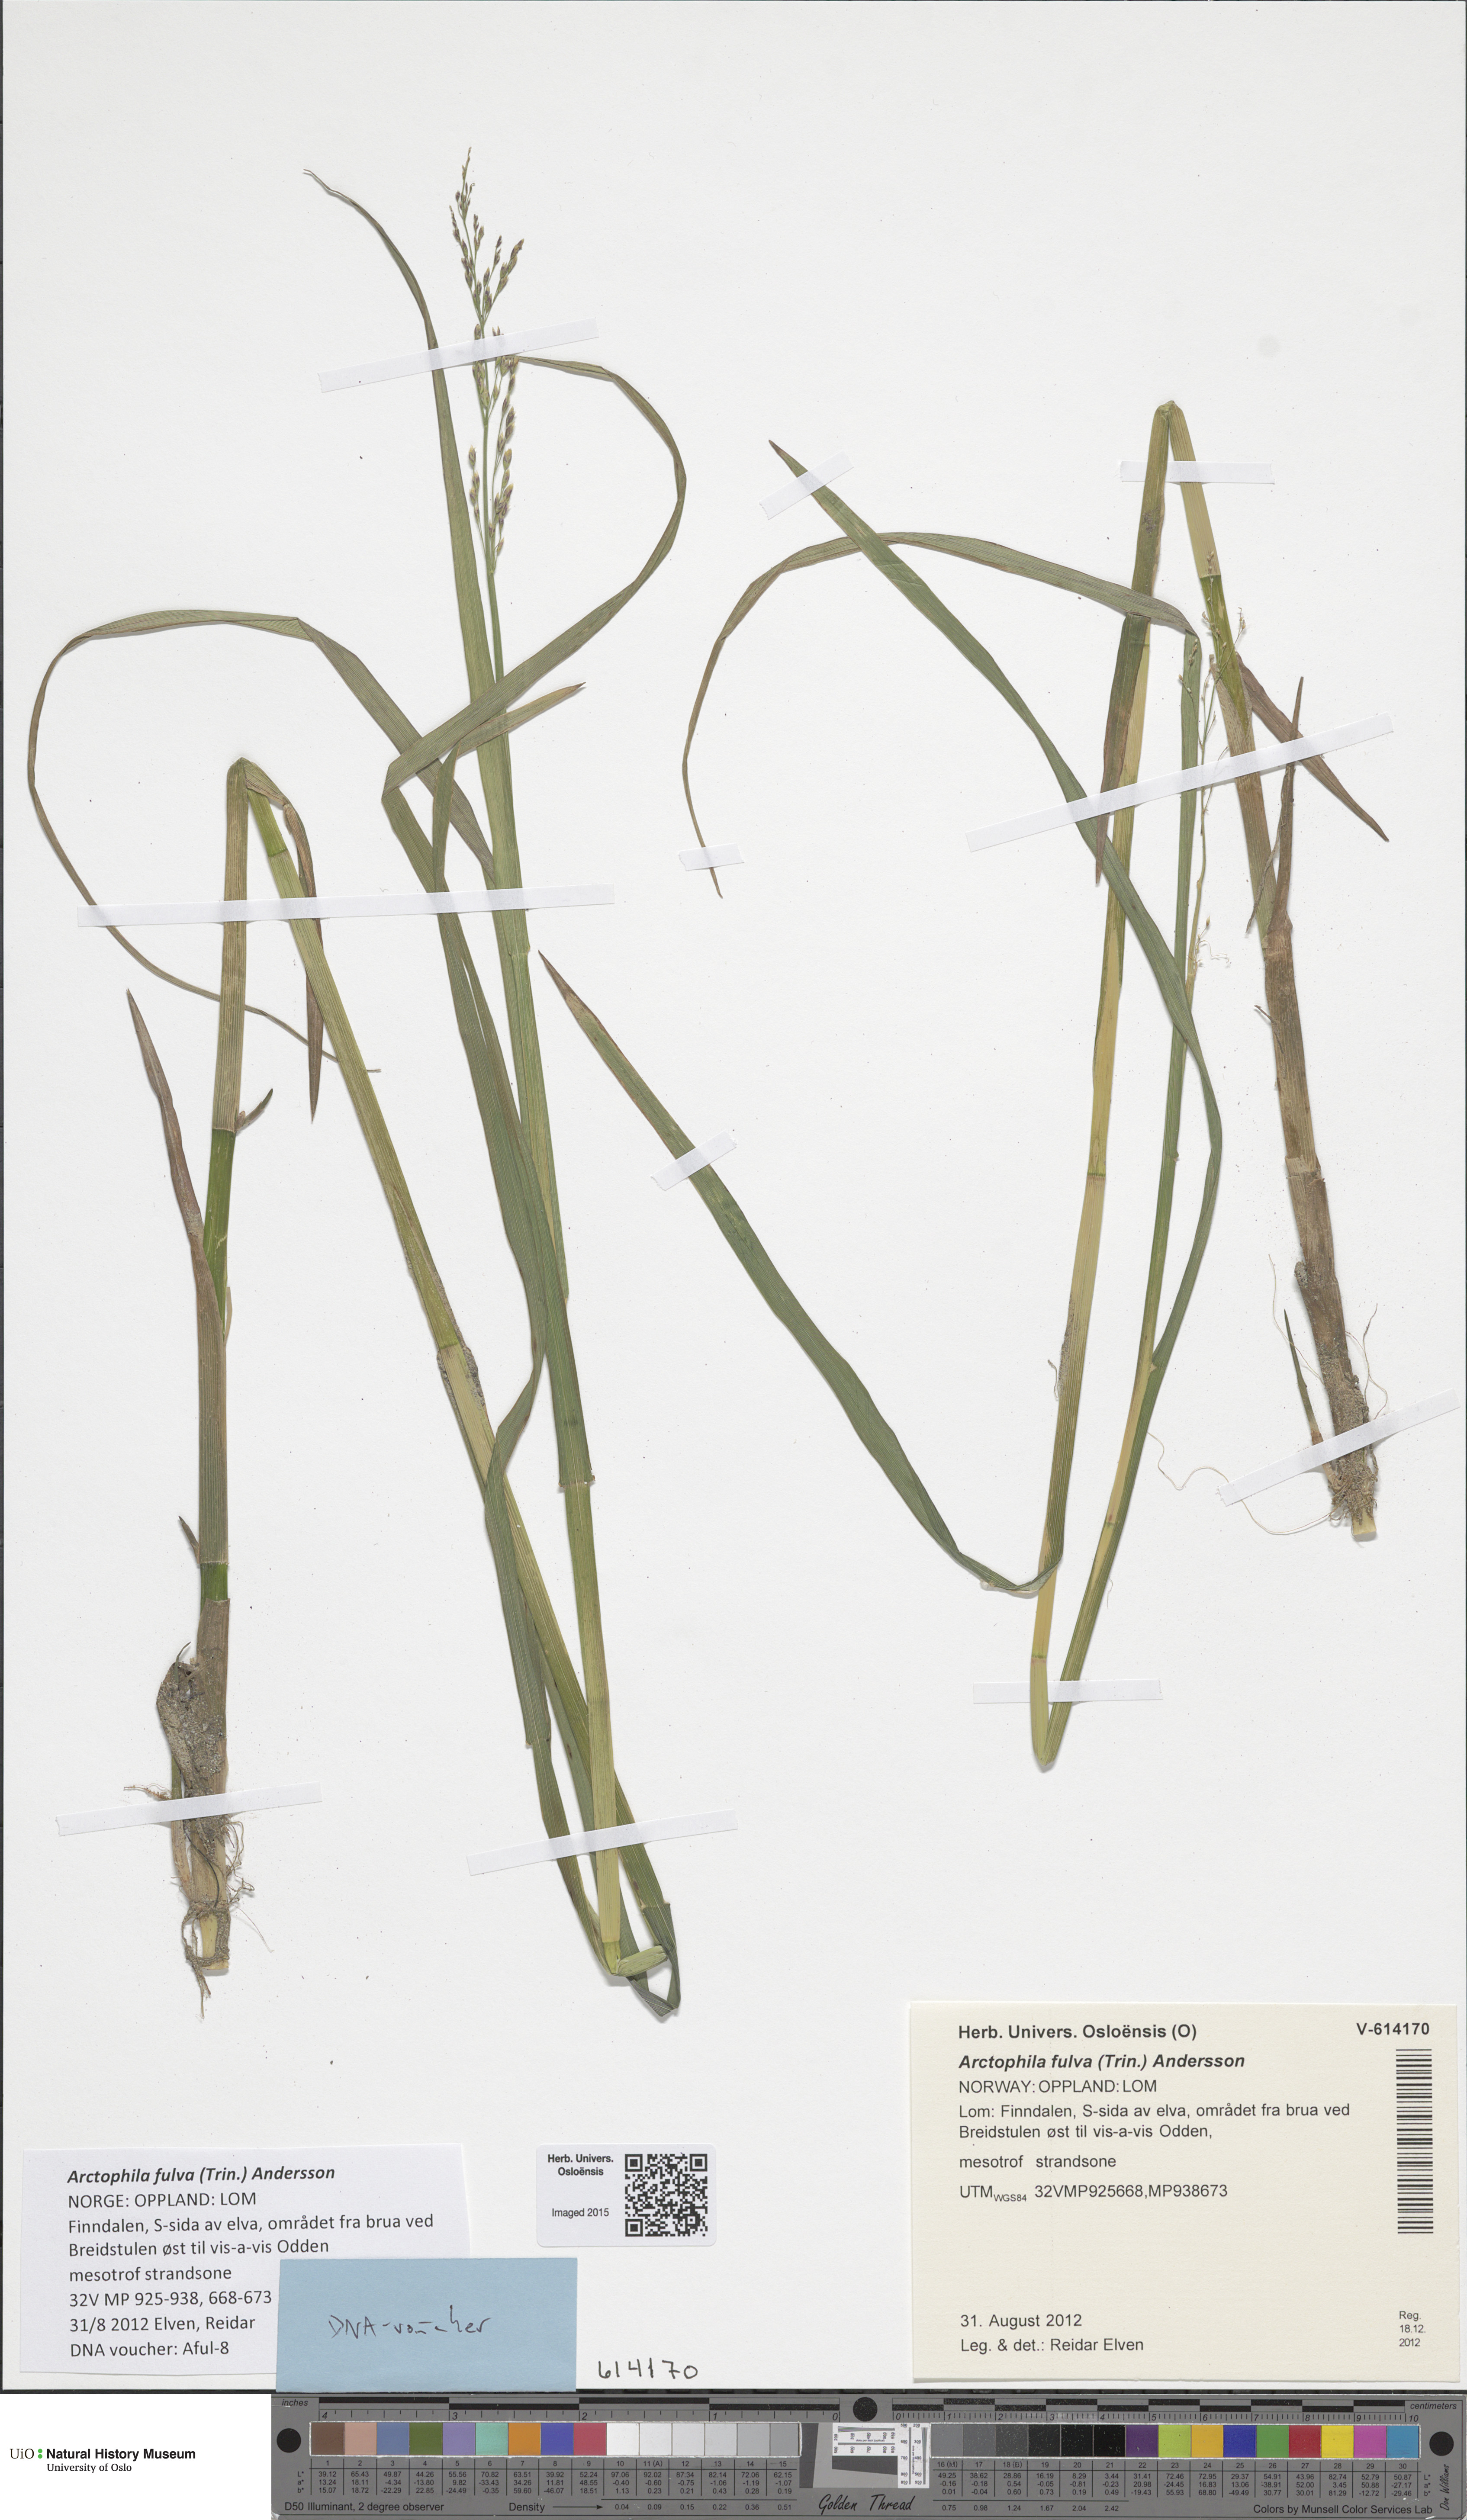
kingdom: Plantae
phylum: Tracheophyta
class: Liliopsida
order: Poales
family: Poaceae
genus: Dupontia
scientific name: Dupontia fulva
